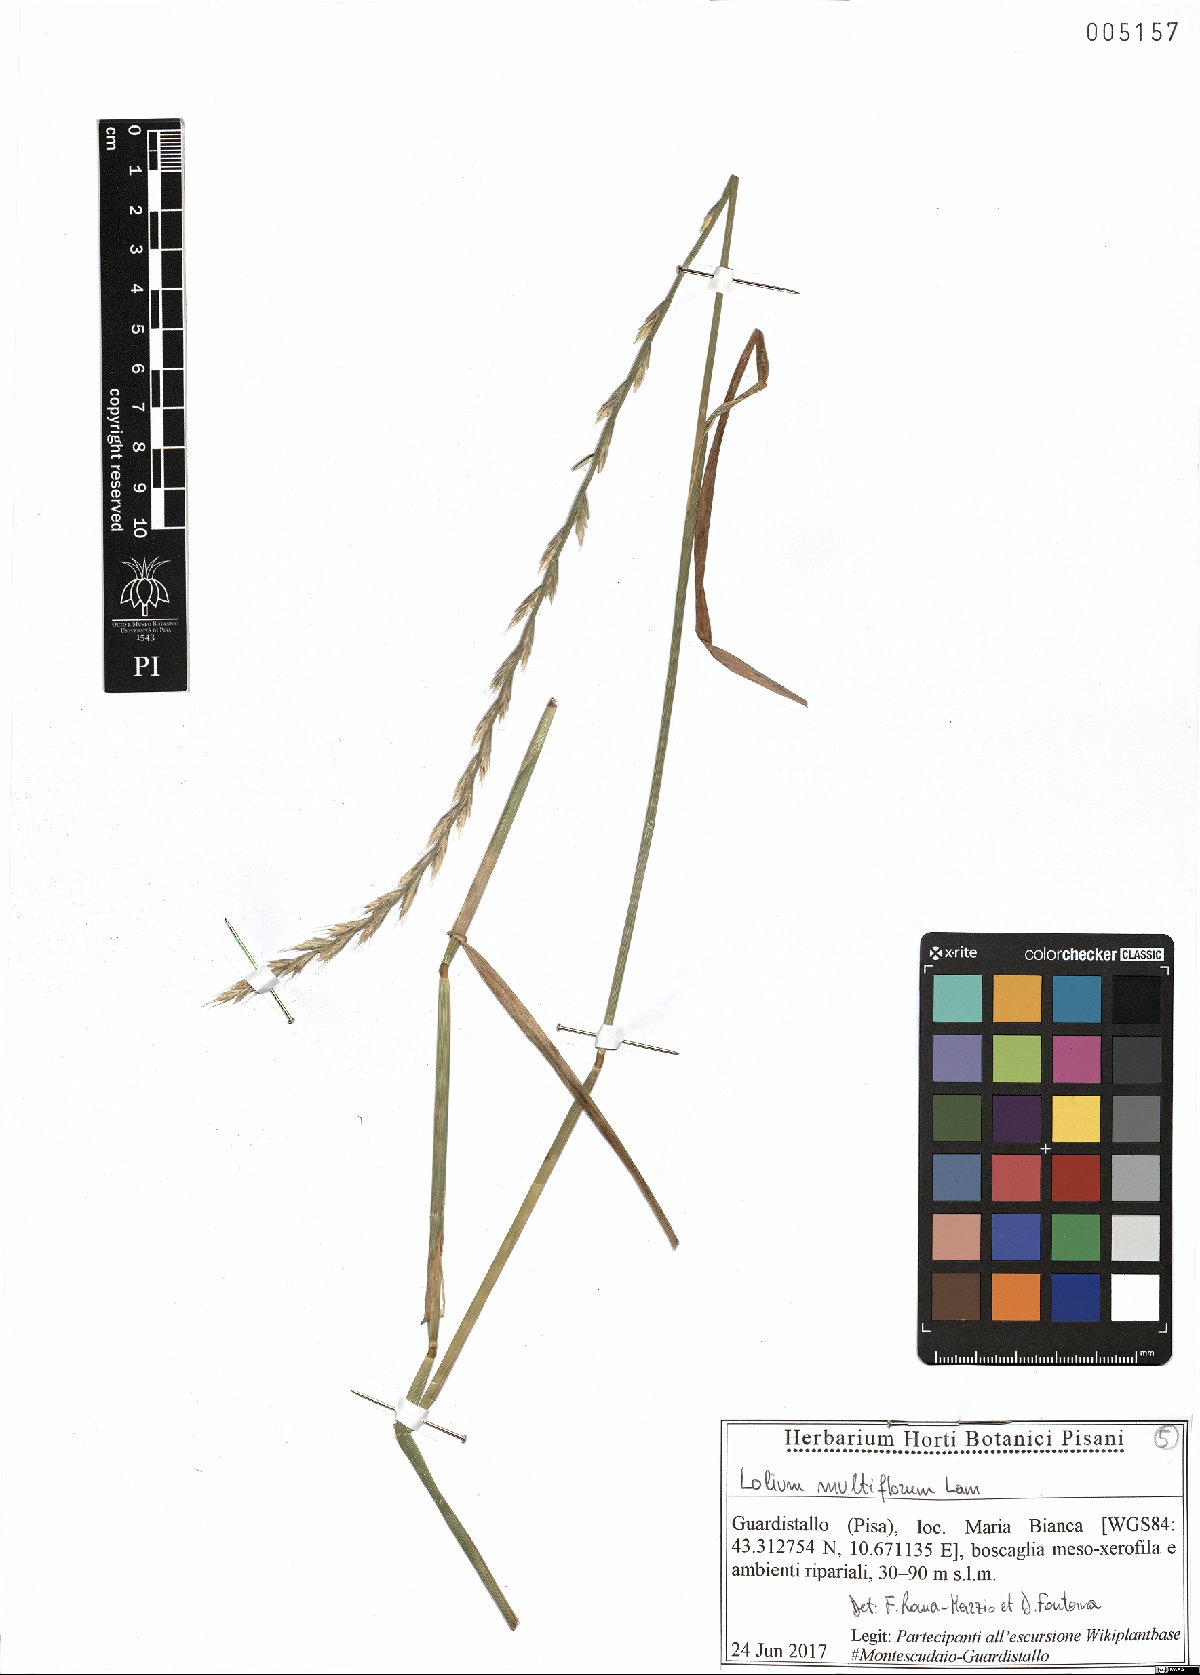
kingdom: Plantae
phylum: Tracheophyta
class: Liliopsida
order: Poales
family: Poaceae
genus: Lolium
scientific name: Lolium multiflorum
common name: Annual ryegrass
